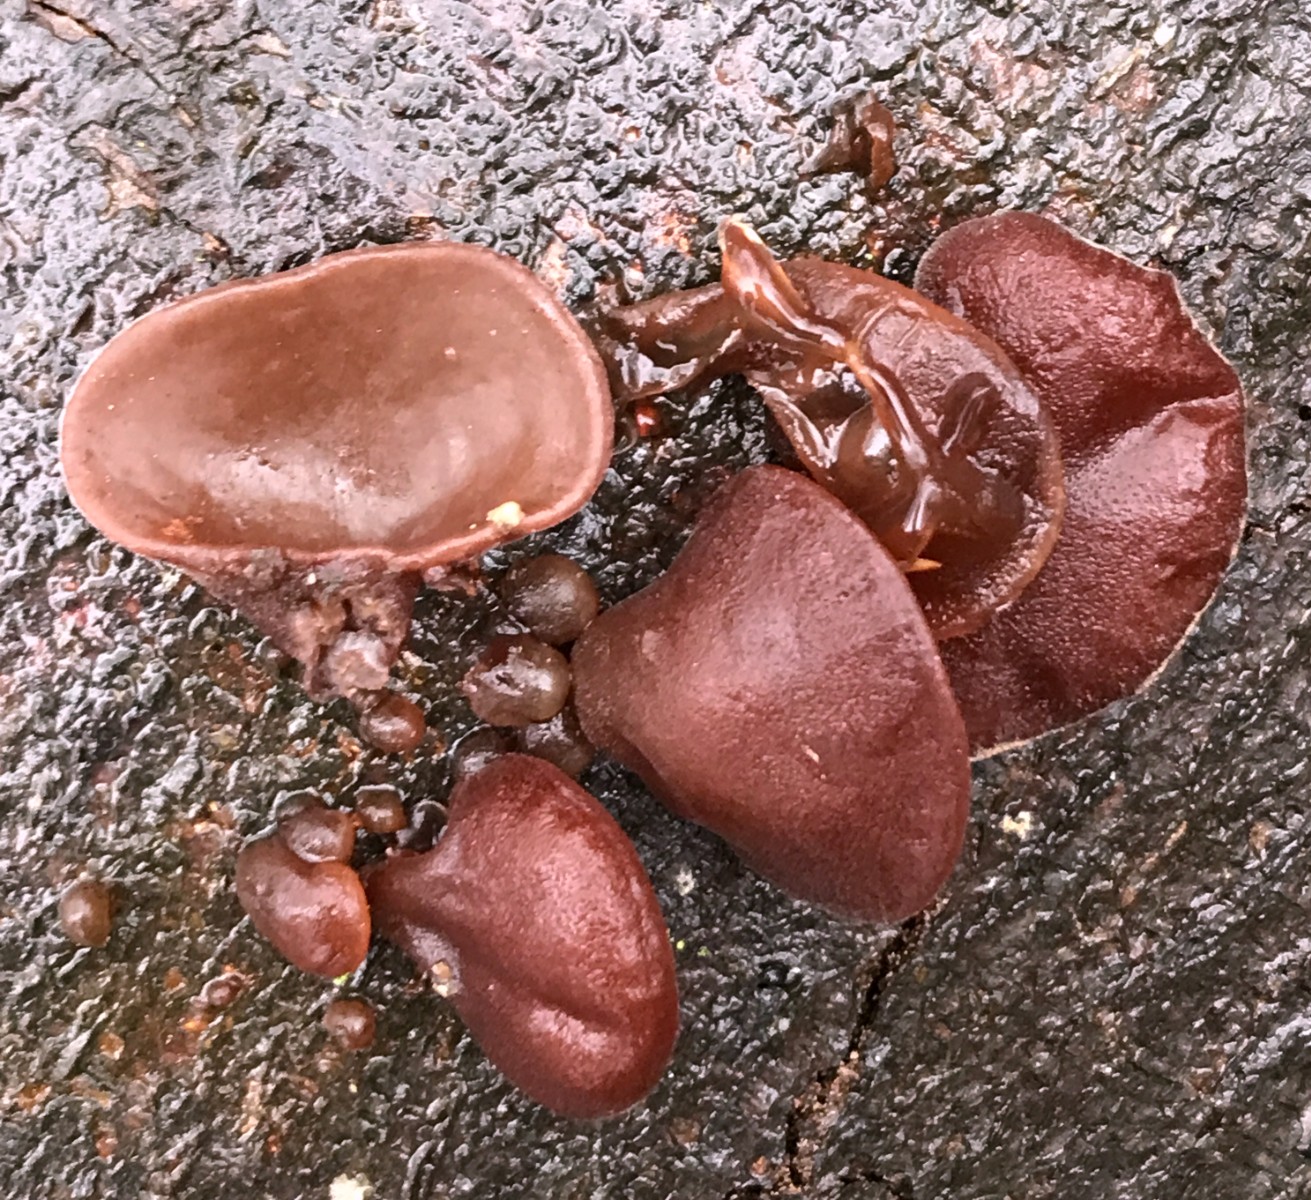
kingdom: Fungi
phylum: Basidiomycota
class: Agaricomycetes
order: Auriculariales
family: Auriculariaceae
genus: Auricularia
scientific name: Auricularia auricula-judae
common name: almindelig judasøre
